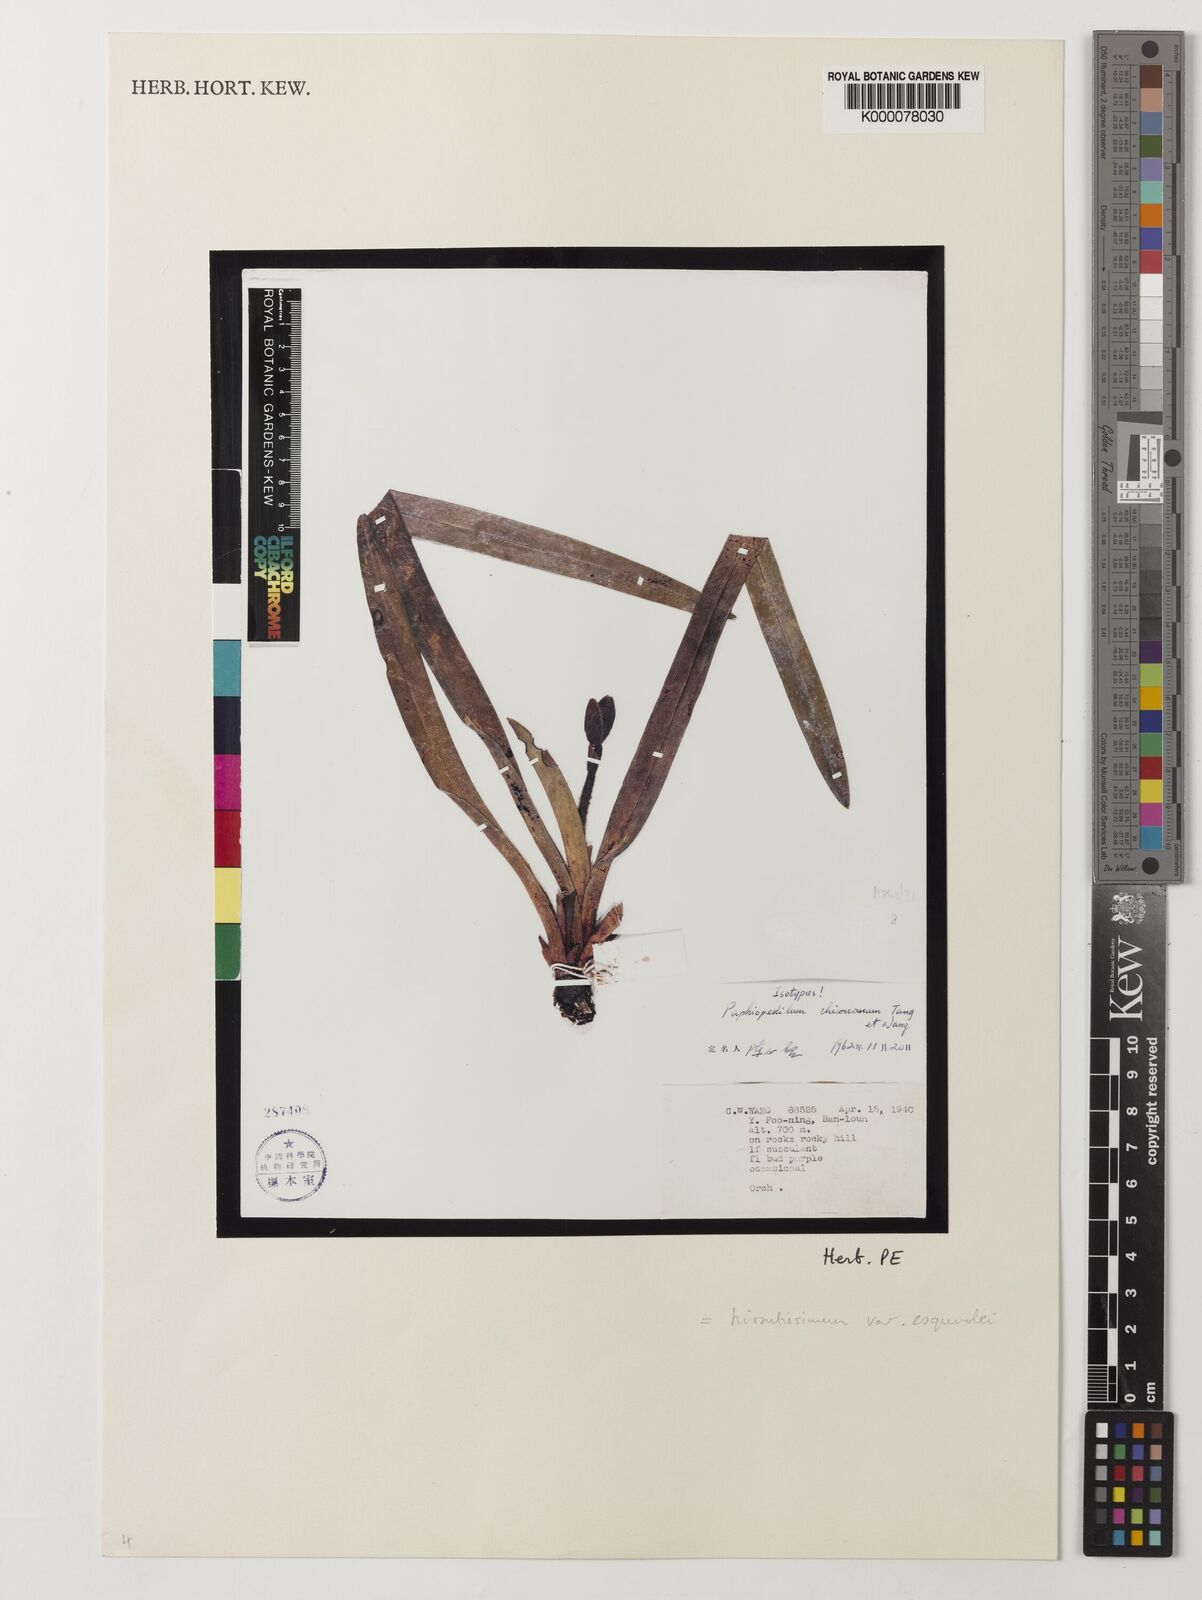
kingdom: Plantae
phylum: Tracheophyta
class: Liliopsida
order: Asparagales
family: Orchidaceae
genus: Paphiopedilum
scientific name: Paphiopedilum hirsutissimum
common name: Shaggy paphiopedilum
